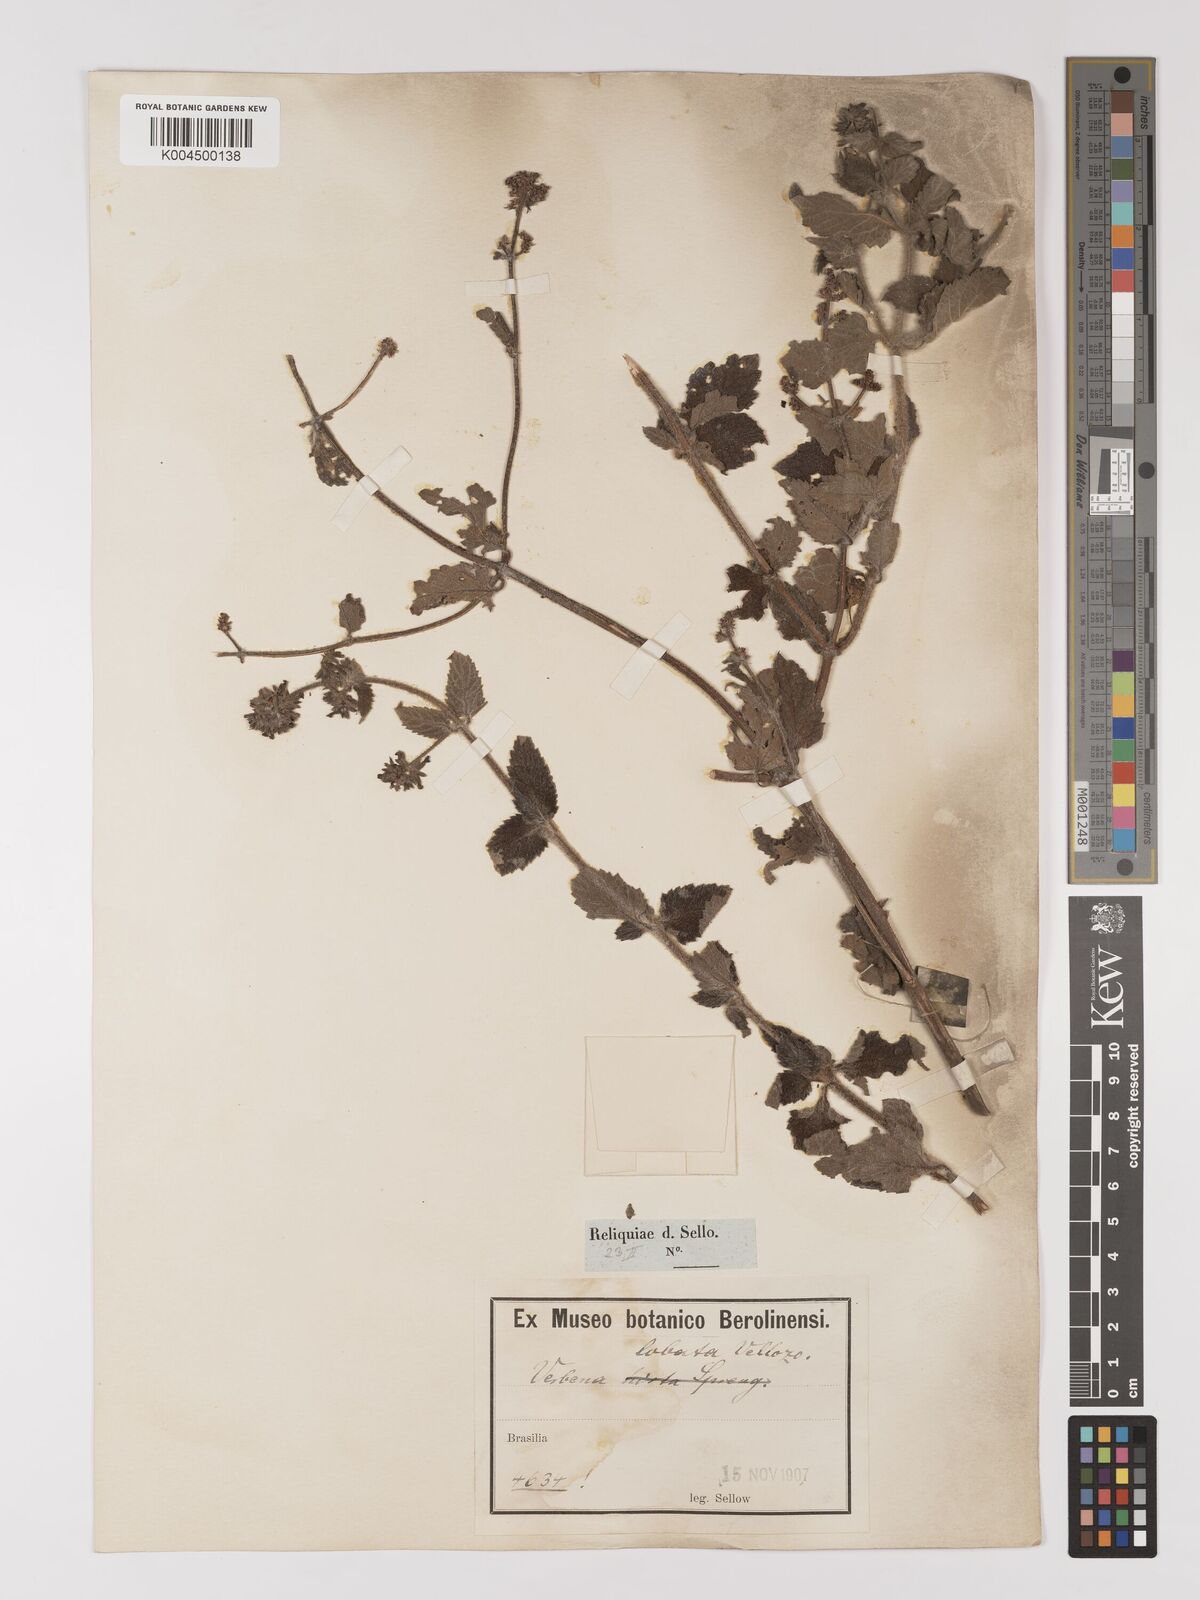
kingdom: Plantae
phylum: Tracheophyta
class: Magnoliopsida
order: Lamiales
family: Verbenaceae
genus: Verbena
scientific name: Verbena lobata
